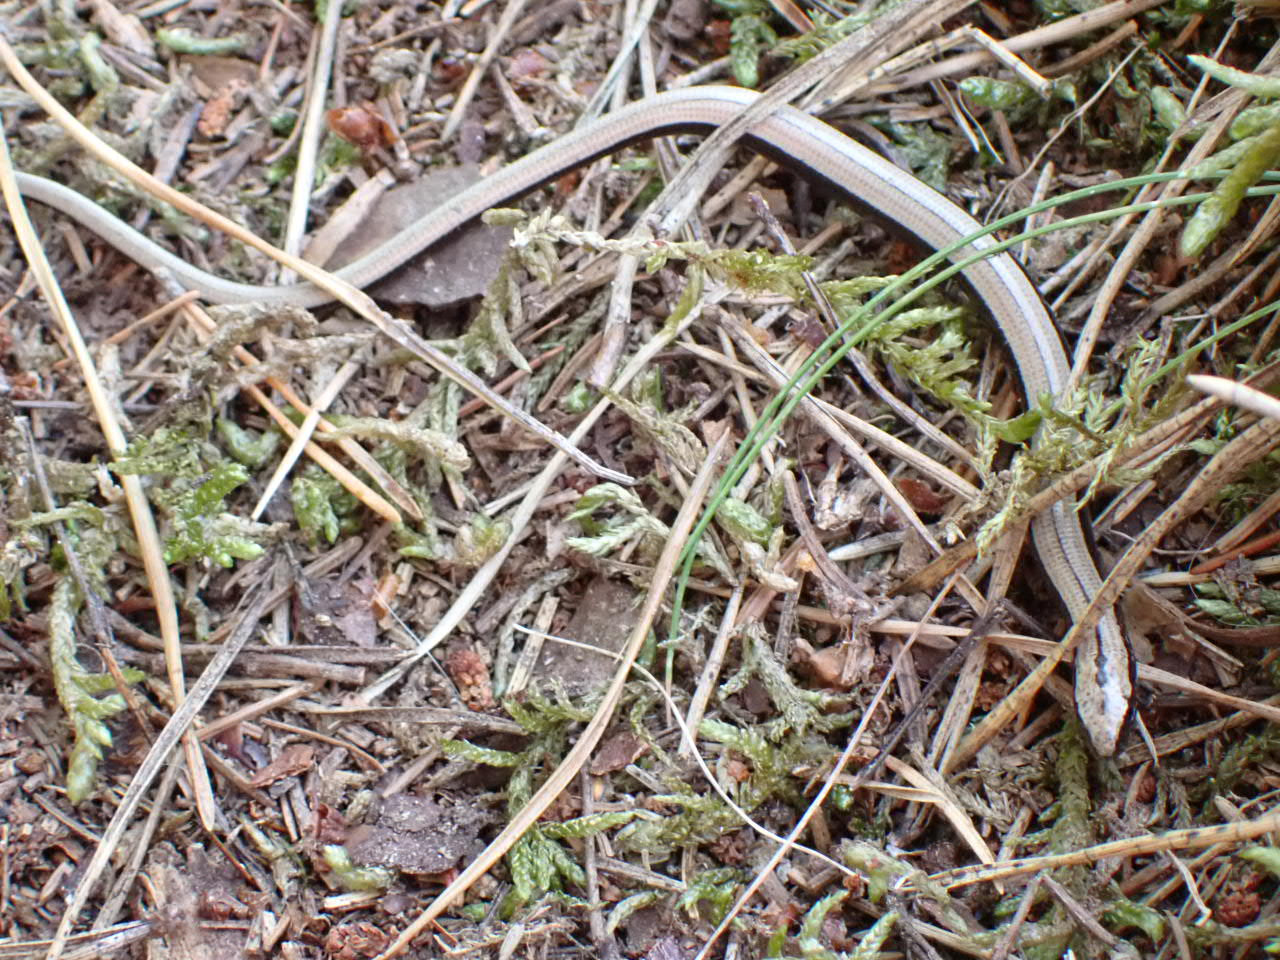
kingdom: Animalia
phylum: Chordata
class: Squamata
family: Anguidae
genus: Anguis
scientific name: Anguis fragilis
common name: Stålorm
